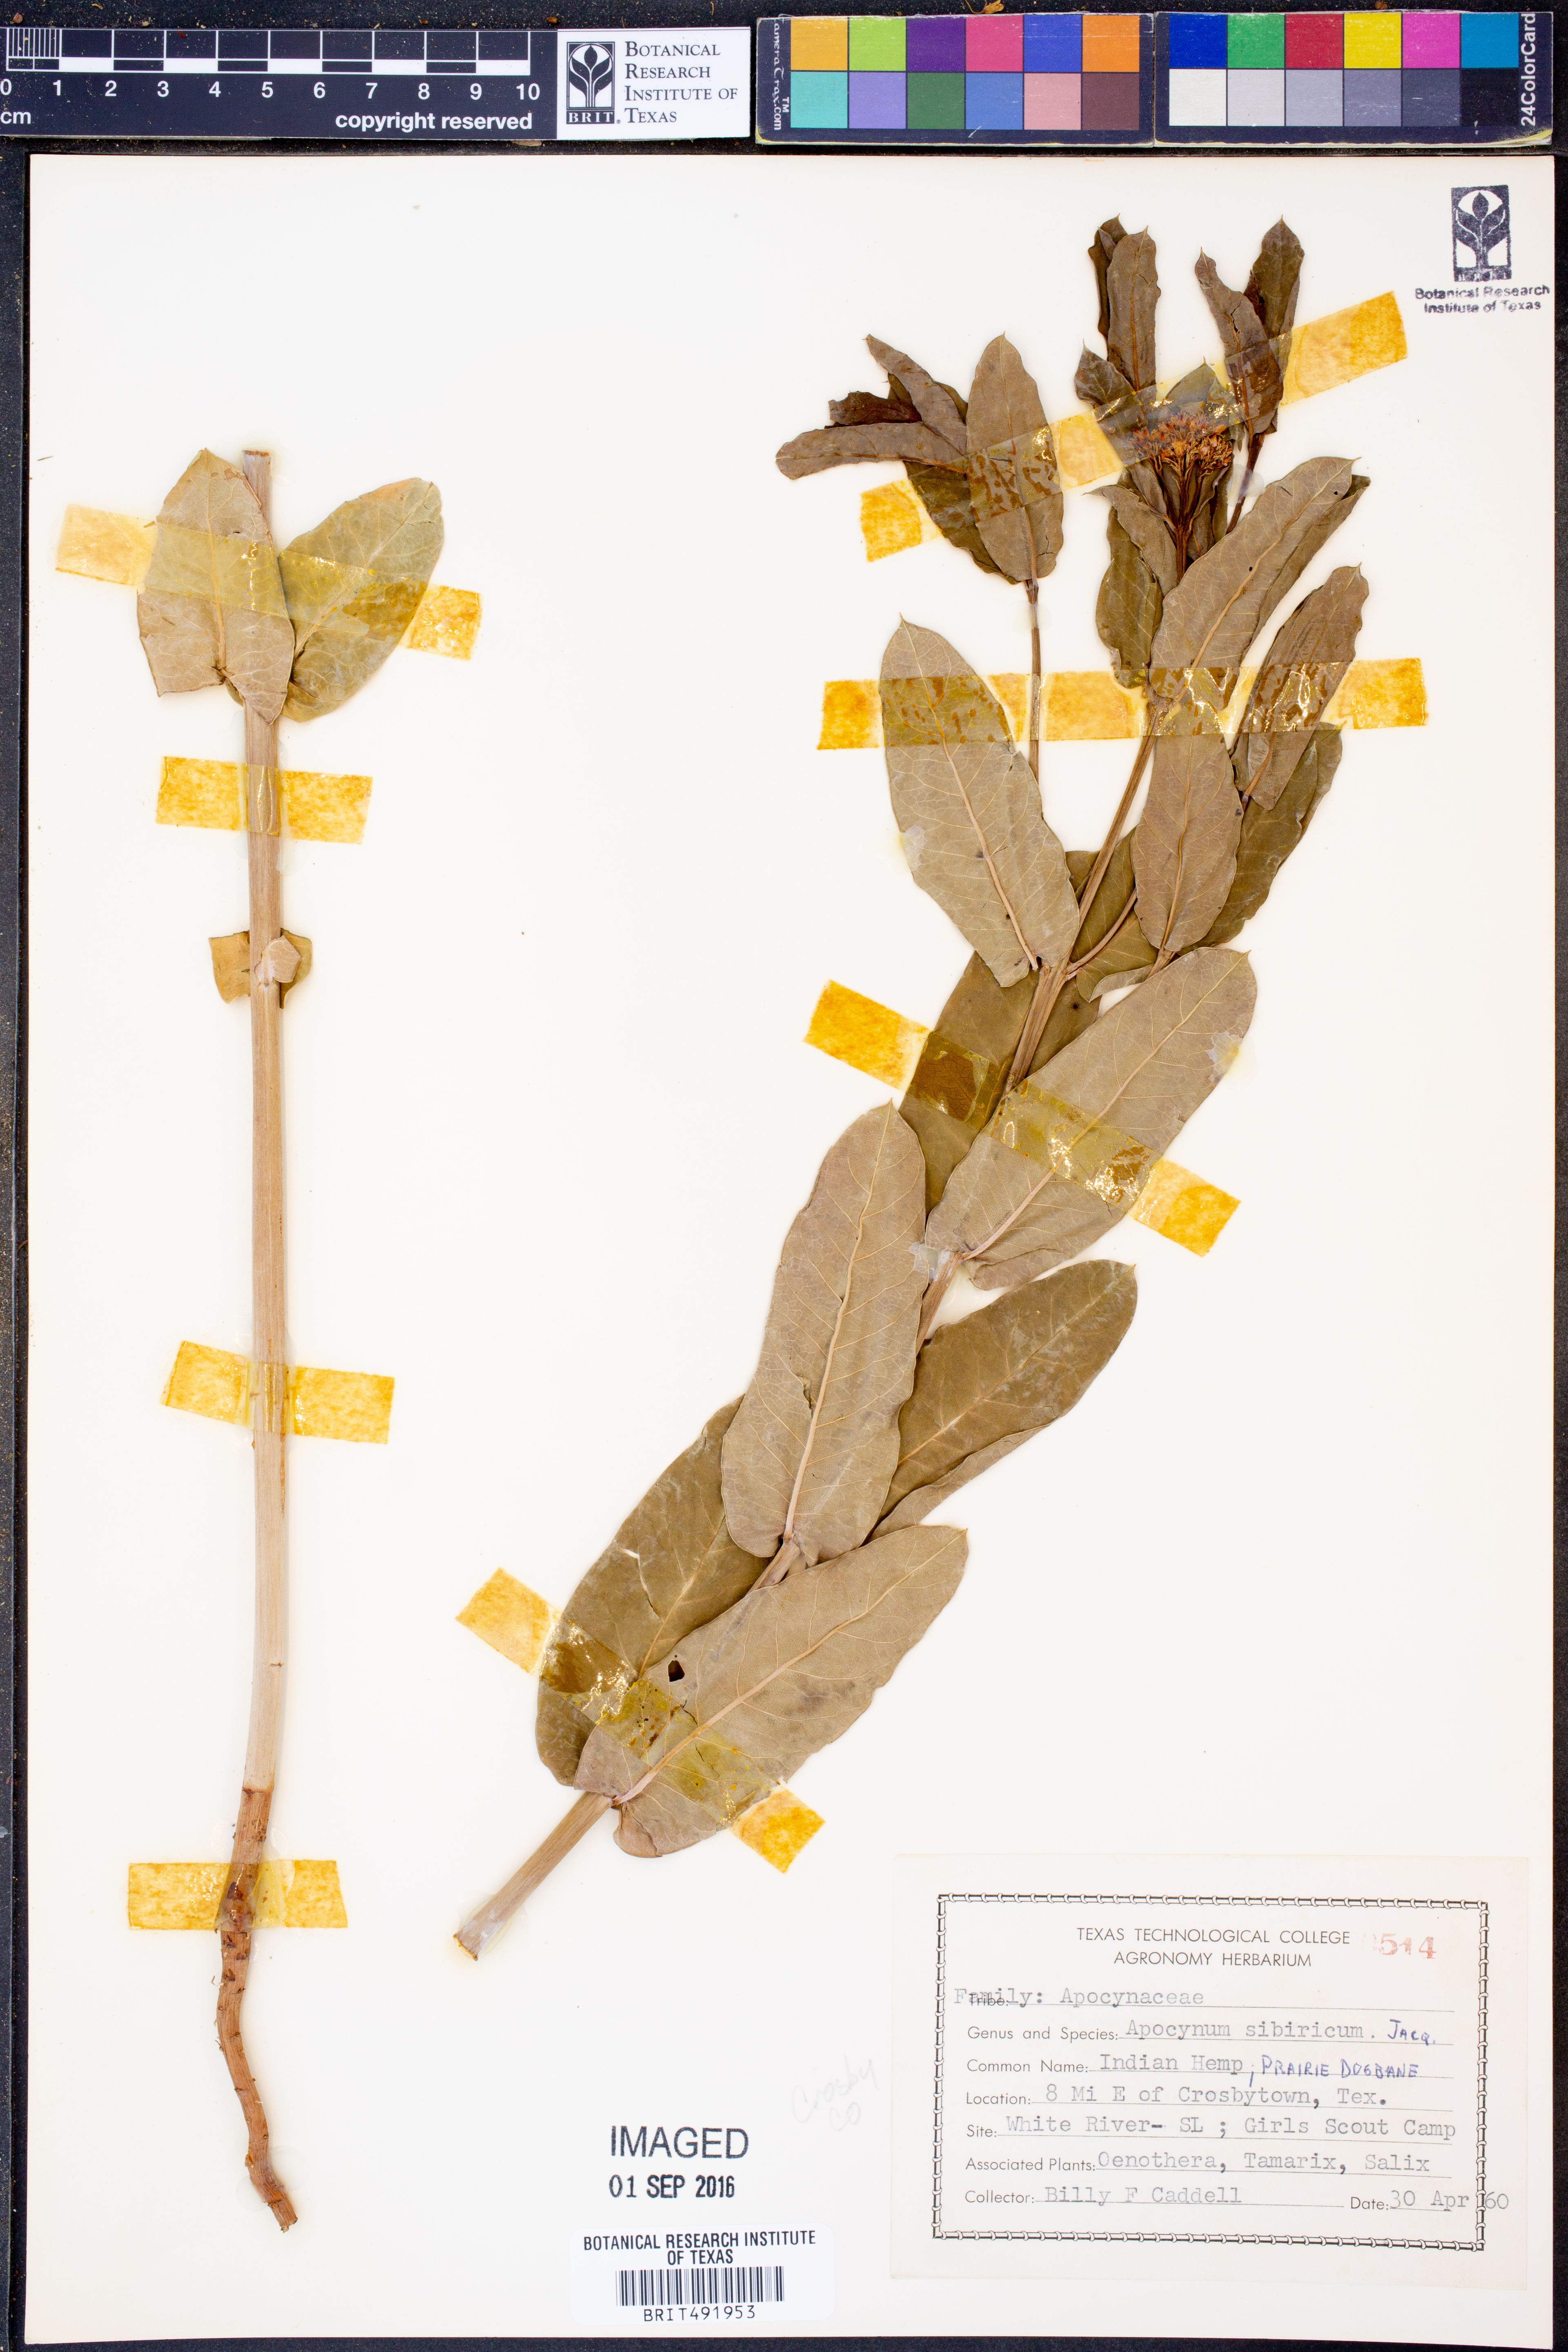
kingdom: Plantae
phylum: Tracheophyta
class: Magnoliopsida
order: Gentianales
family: Apocynaceae
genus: Apocynum
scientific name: Apocynum cannabinum
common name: Hemp dogbane
